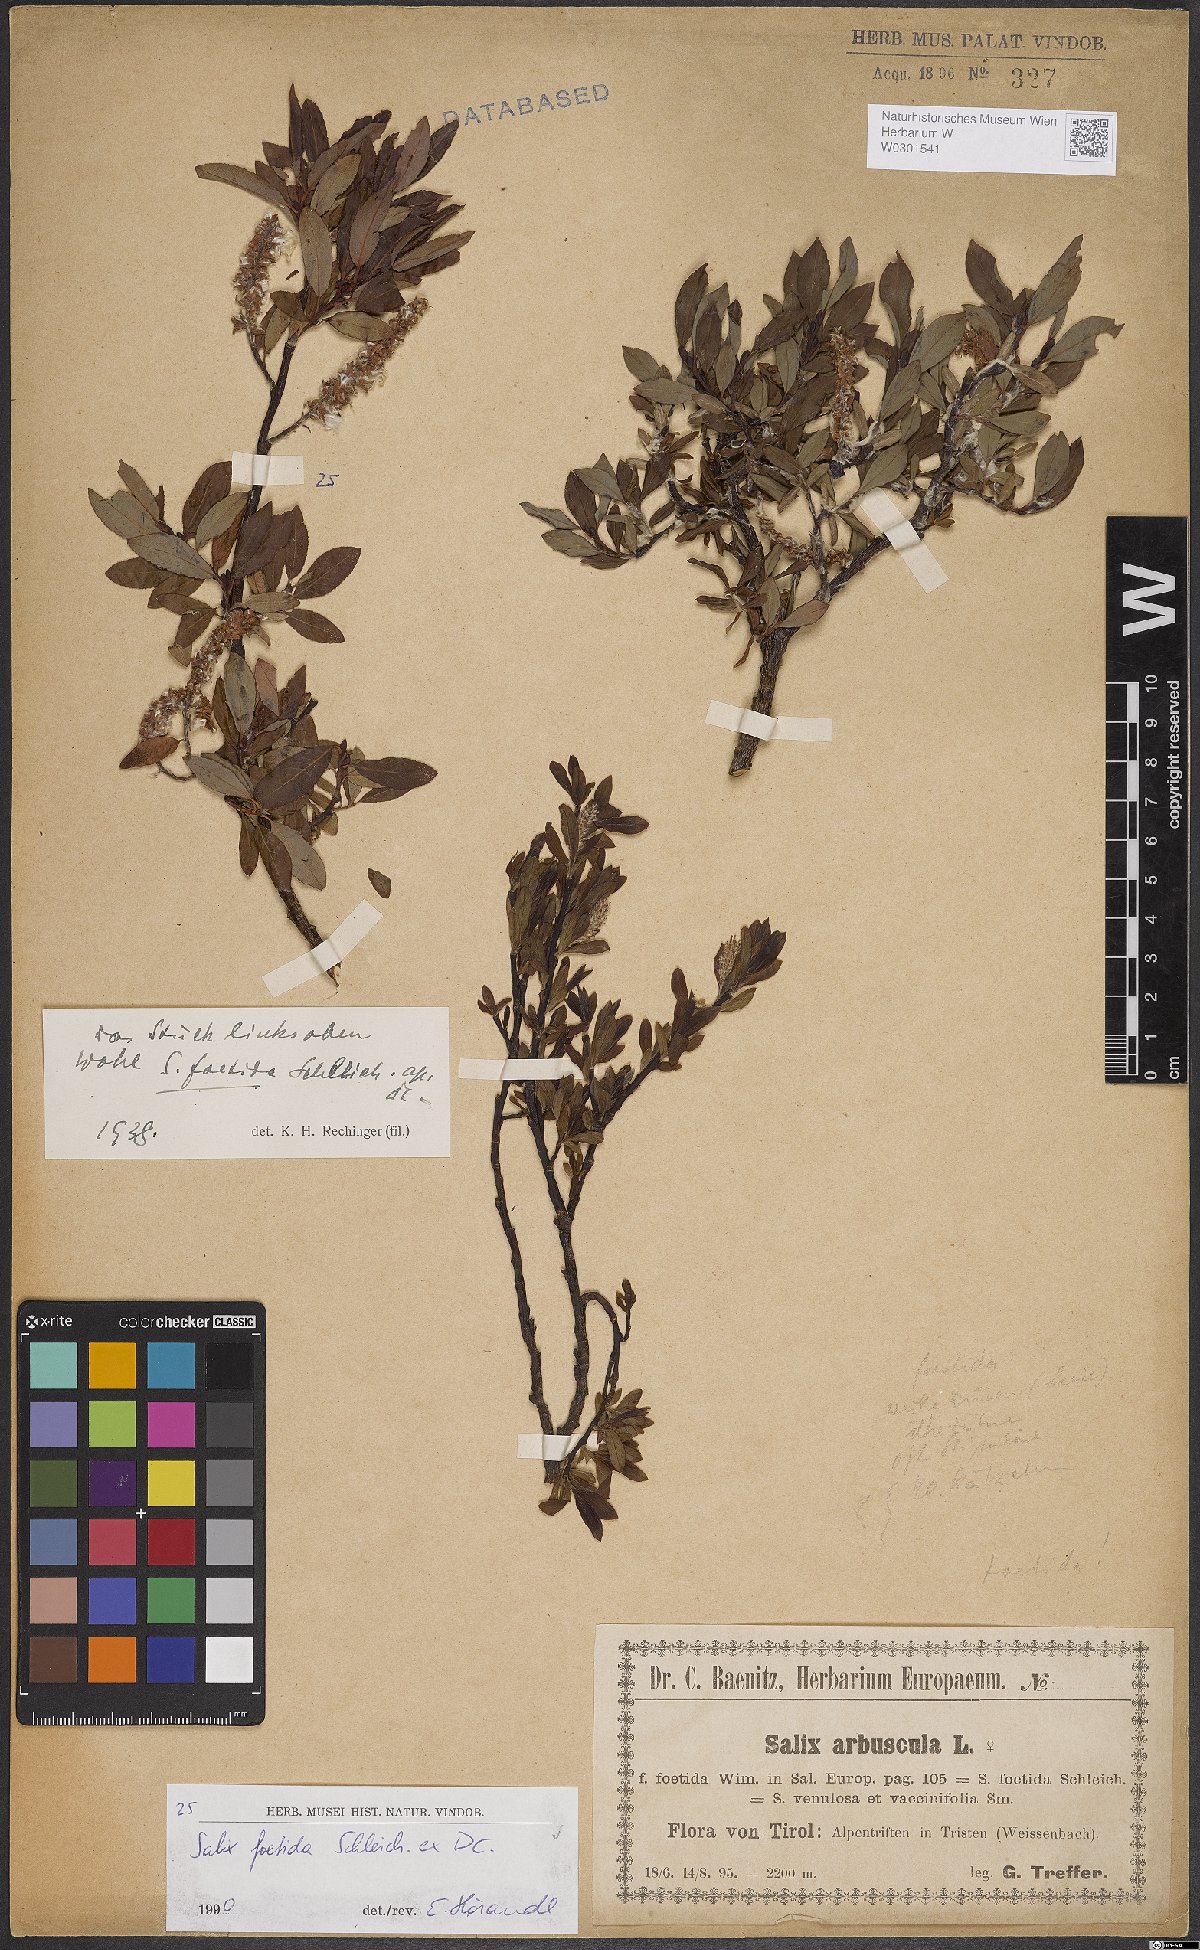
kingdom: Plantae
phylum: Tracheophyta
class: Magnoliopsida
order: Malpighiales
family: Salicaceae
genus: Salix
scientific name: Salix foetida
